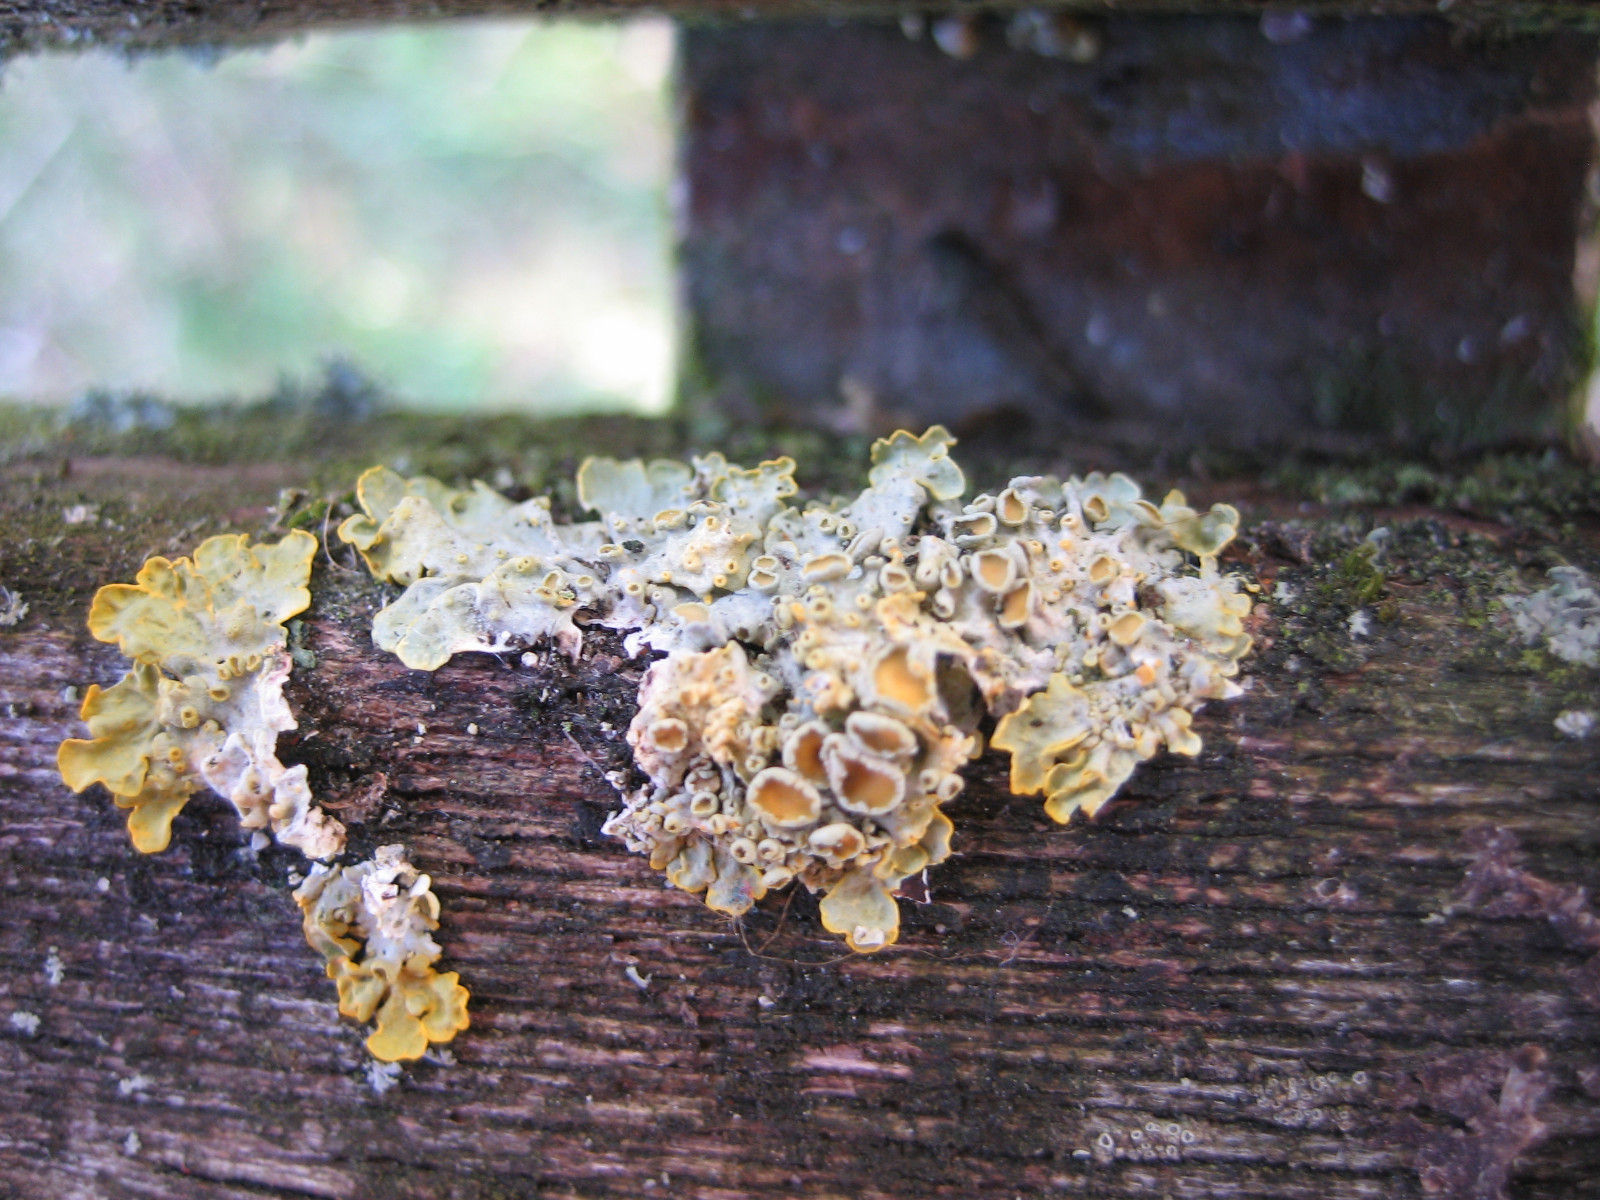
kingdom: Fungi
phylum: Ascomycota
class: Lecanoromycetes
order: Teloschistales
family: Teloschistaceae
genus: Xanthoria
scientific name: Xanthoria parietina
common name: almindelig væggelav
